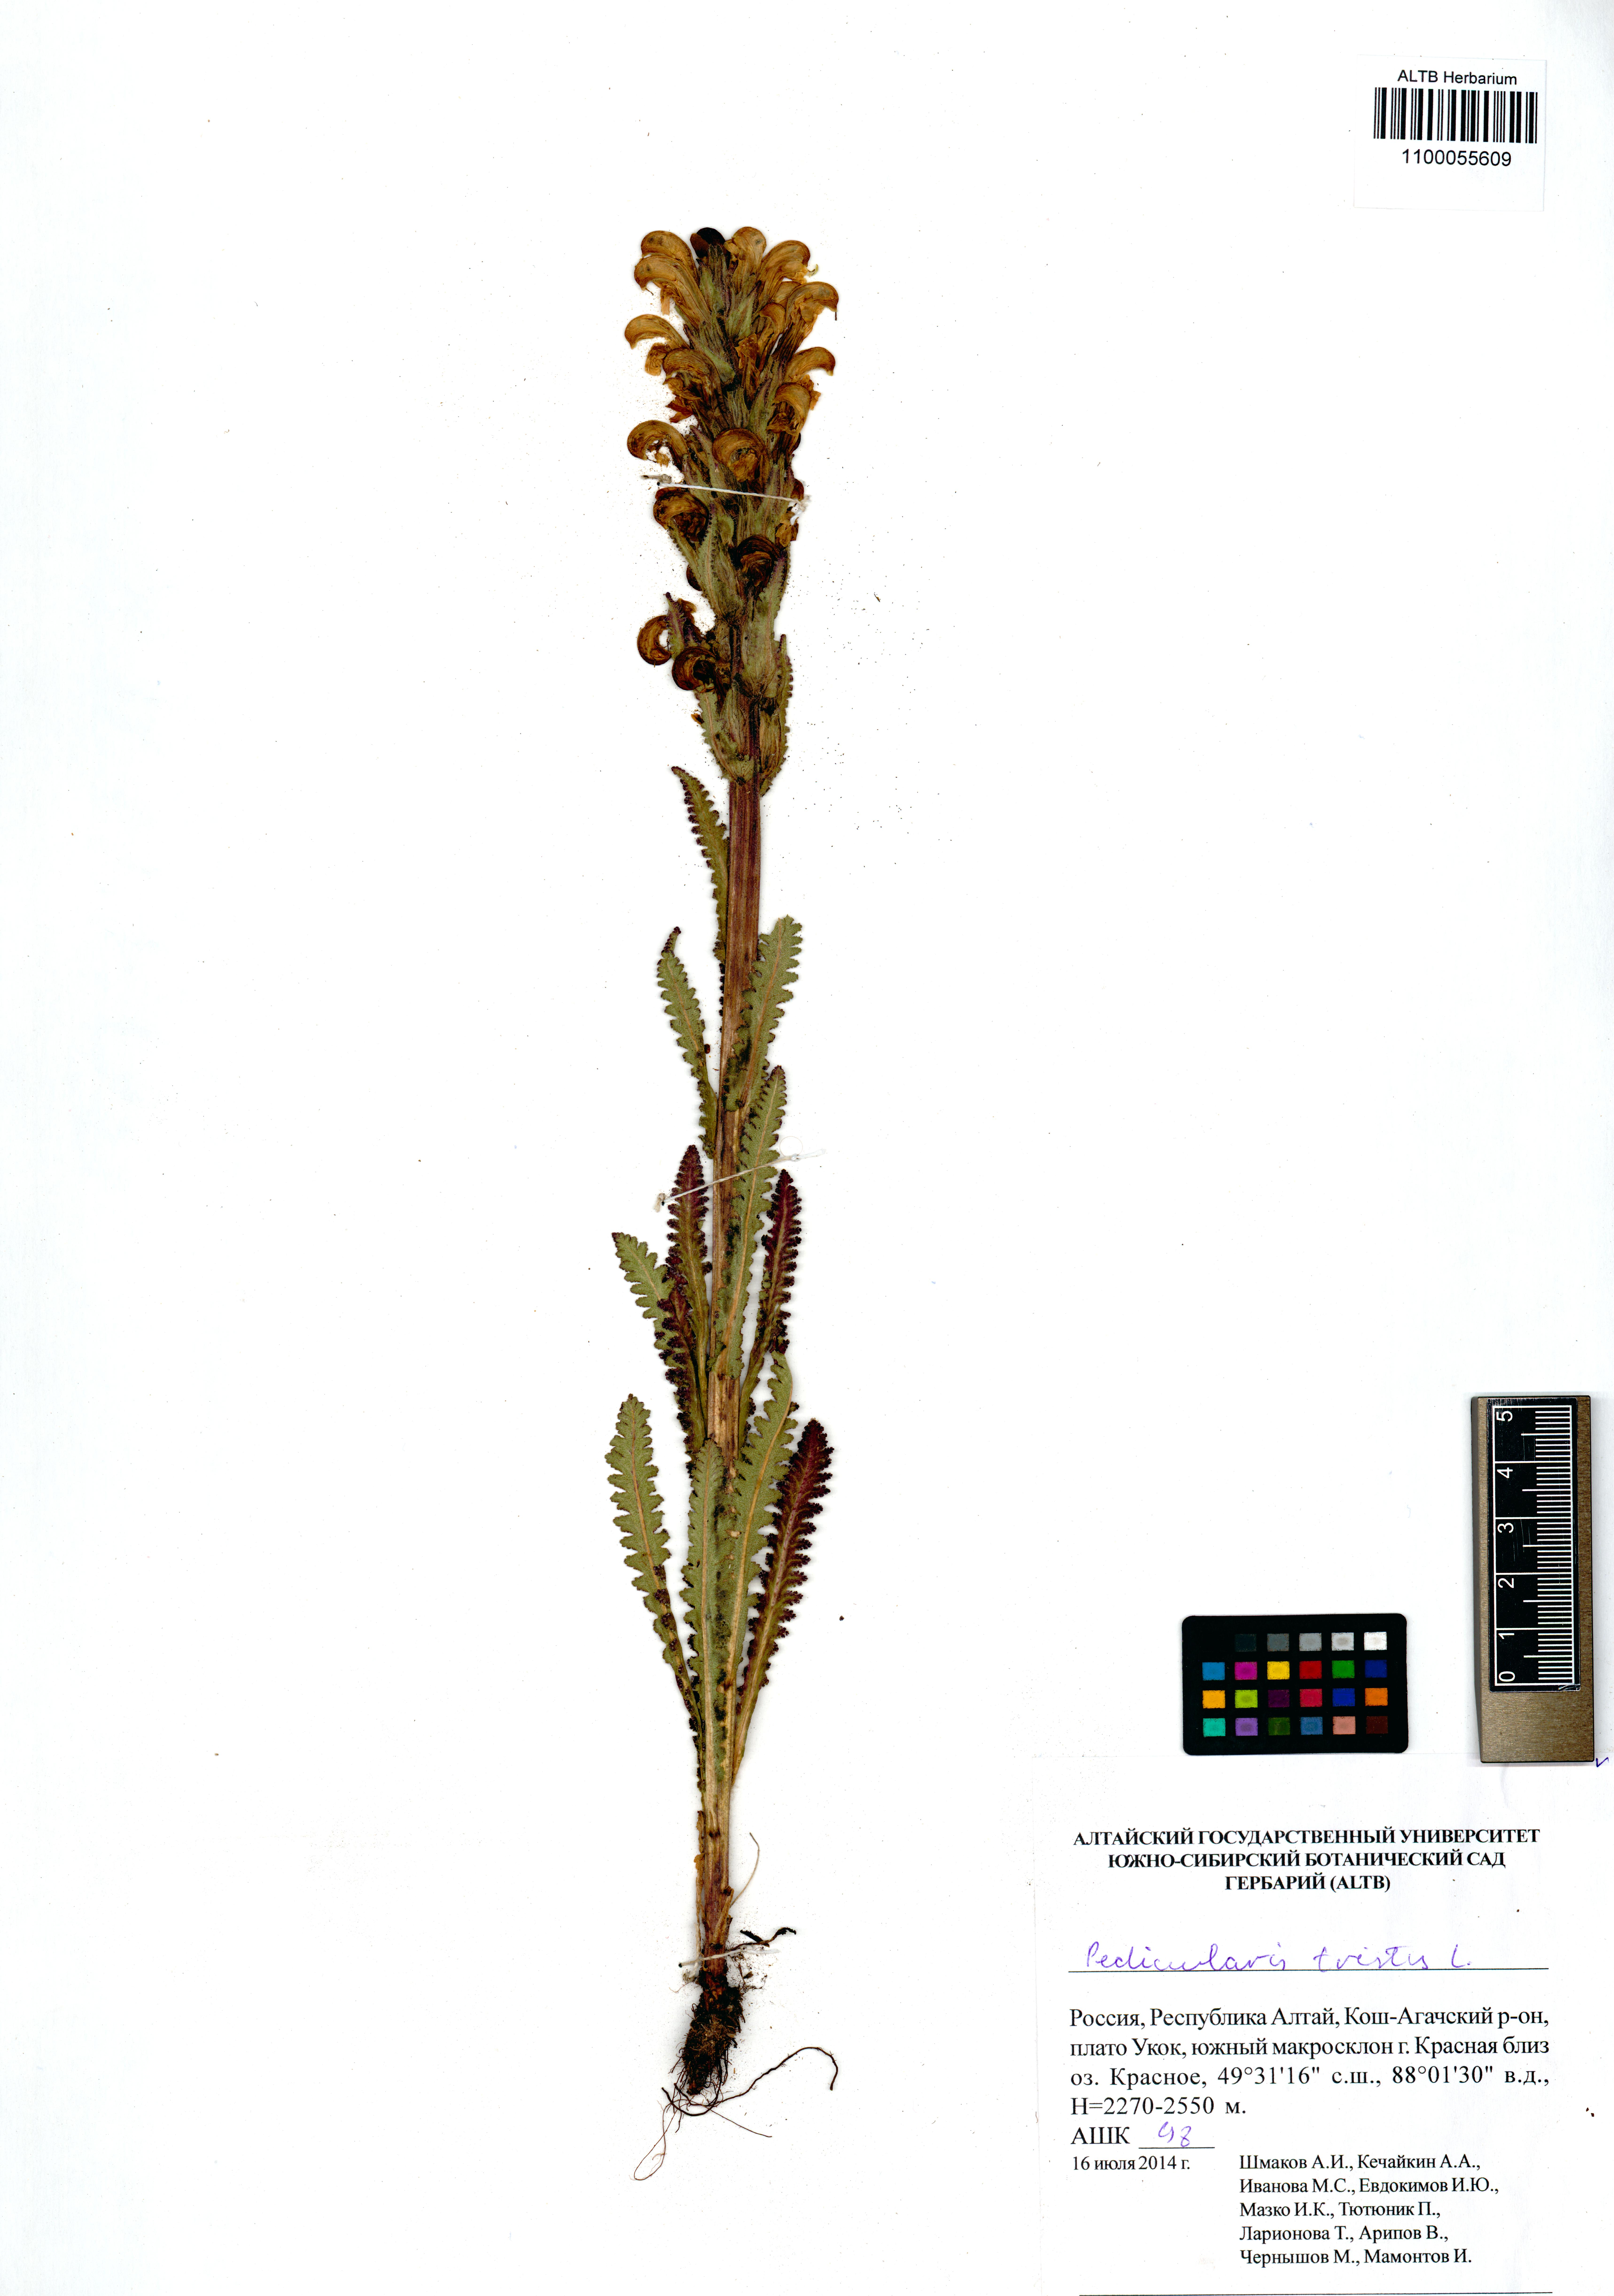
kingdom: Plantae
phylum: Tracheophyta
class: Magnoliopsida
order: Lamiales
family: Orobanchaceae
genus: Pedicularis
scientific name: Pedicularis tristis
